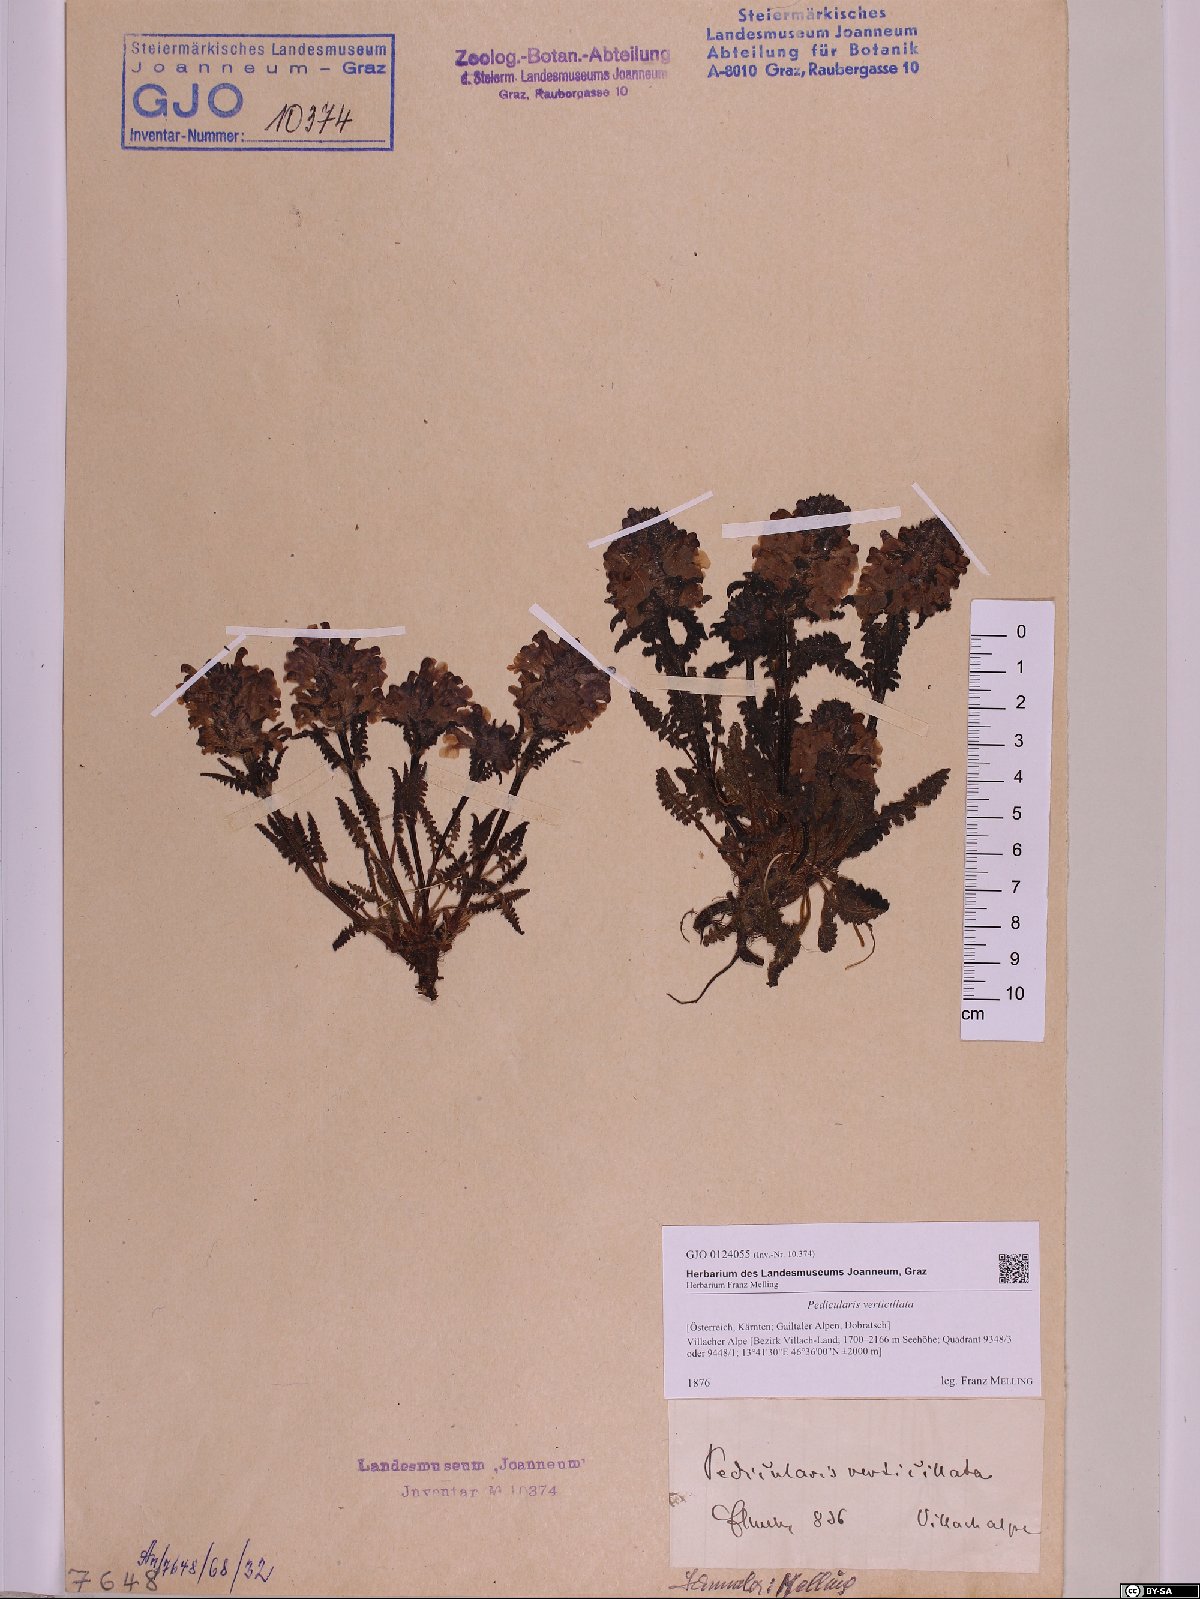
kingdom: Plantae
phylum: Tracheophyta
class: Magnoliopsida
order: Lamiales
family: Orobanchaceae
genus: Pedicularis
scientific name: Pedicularis verticillata
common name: Whorled lousewort
